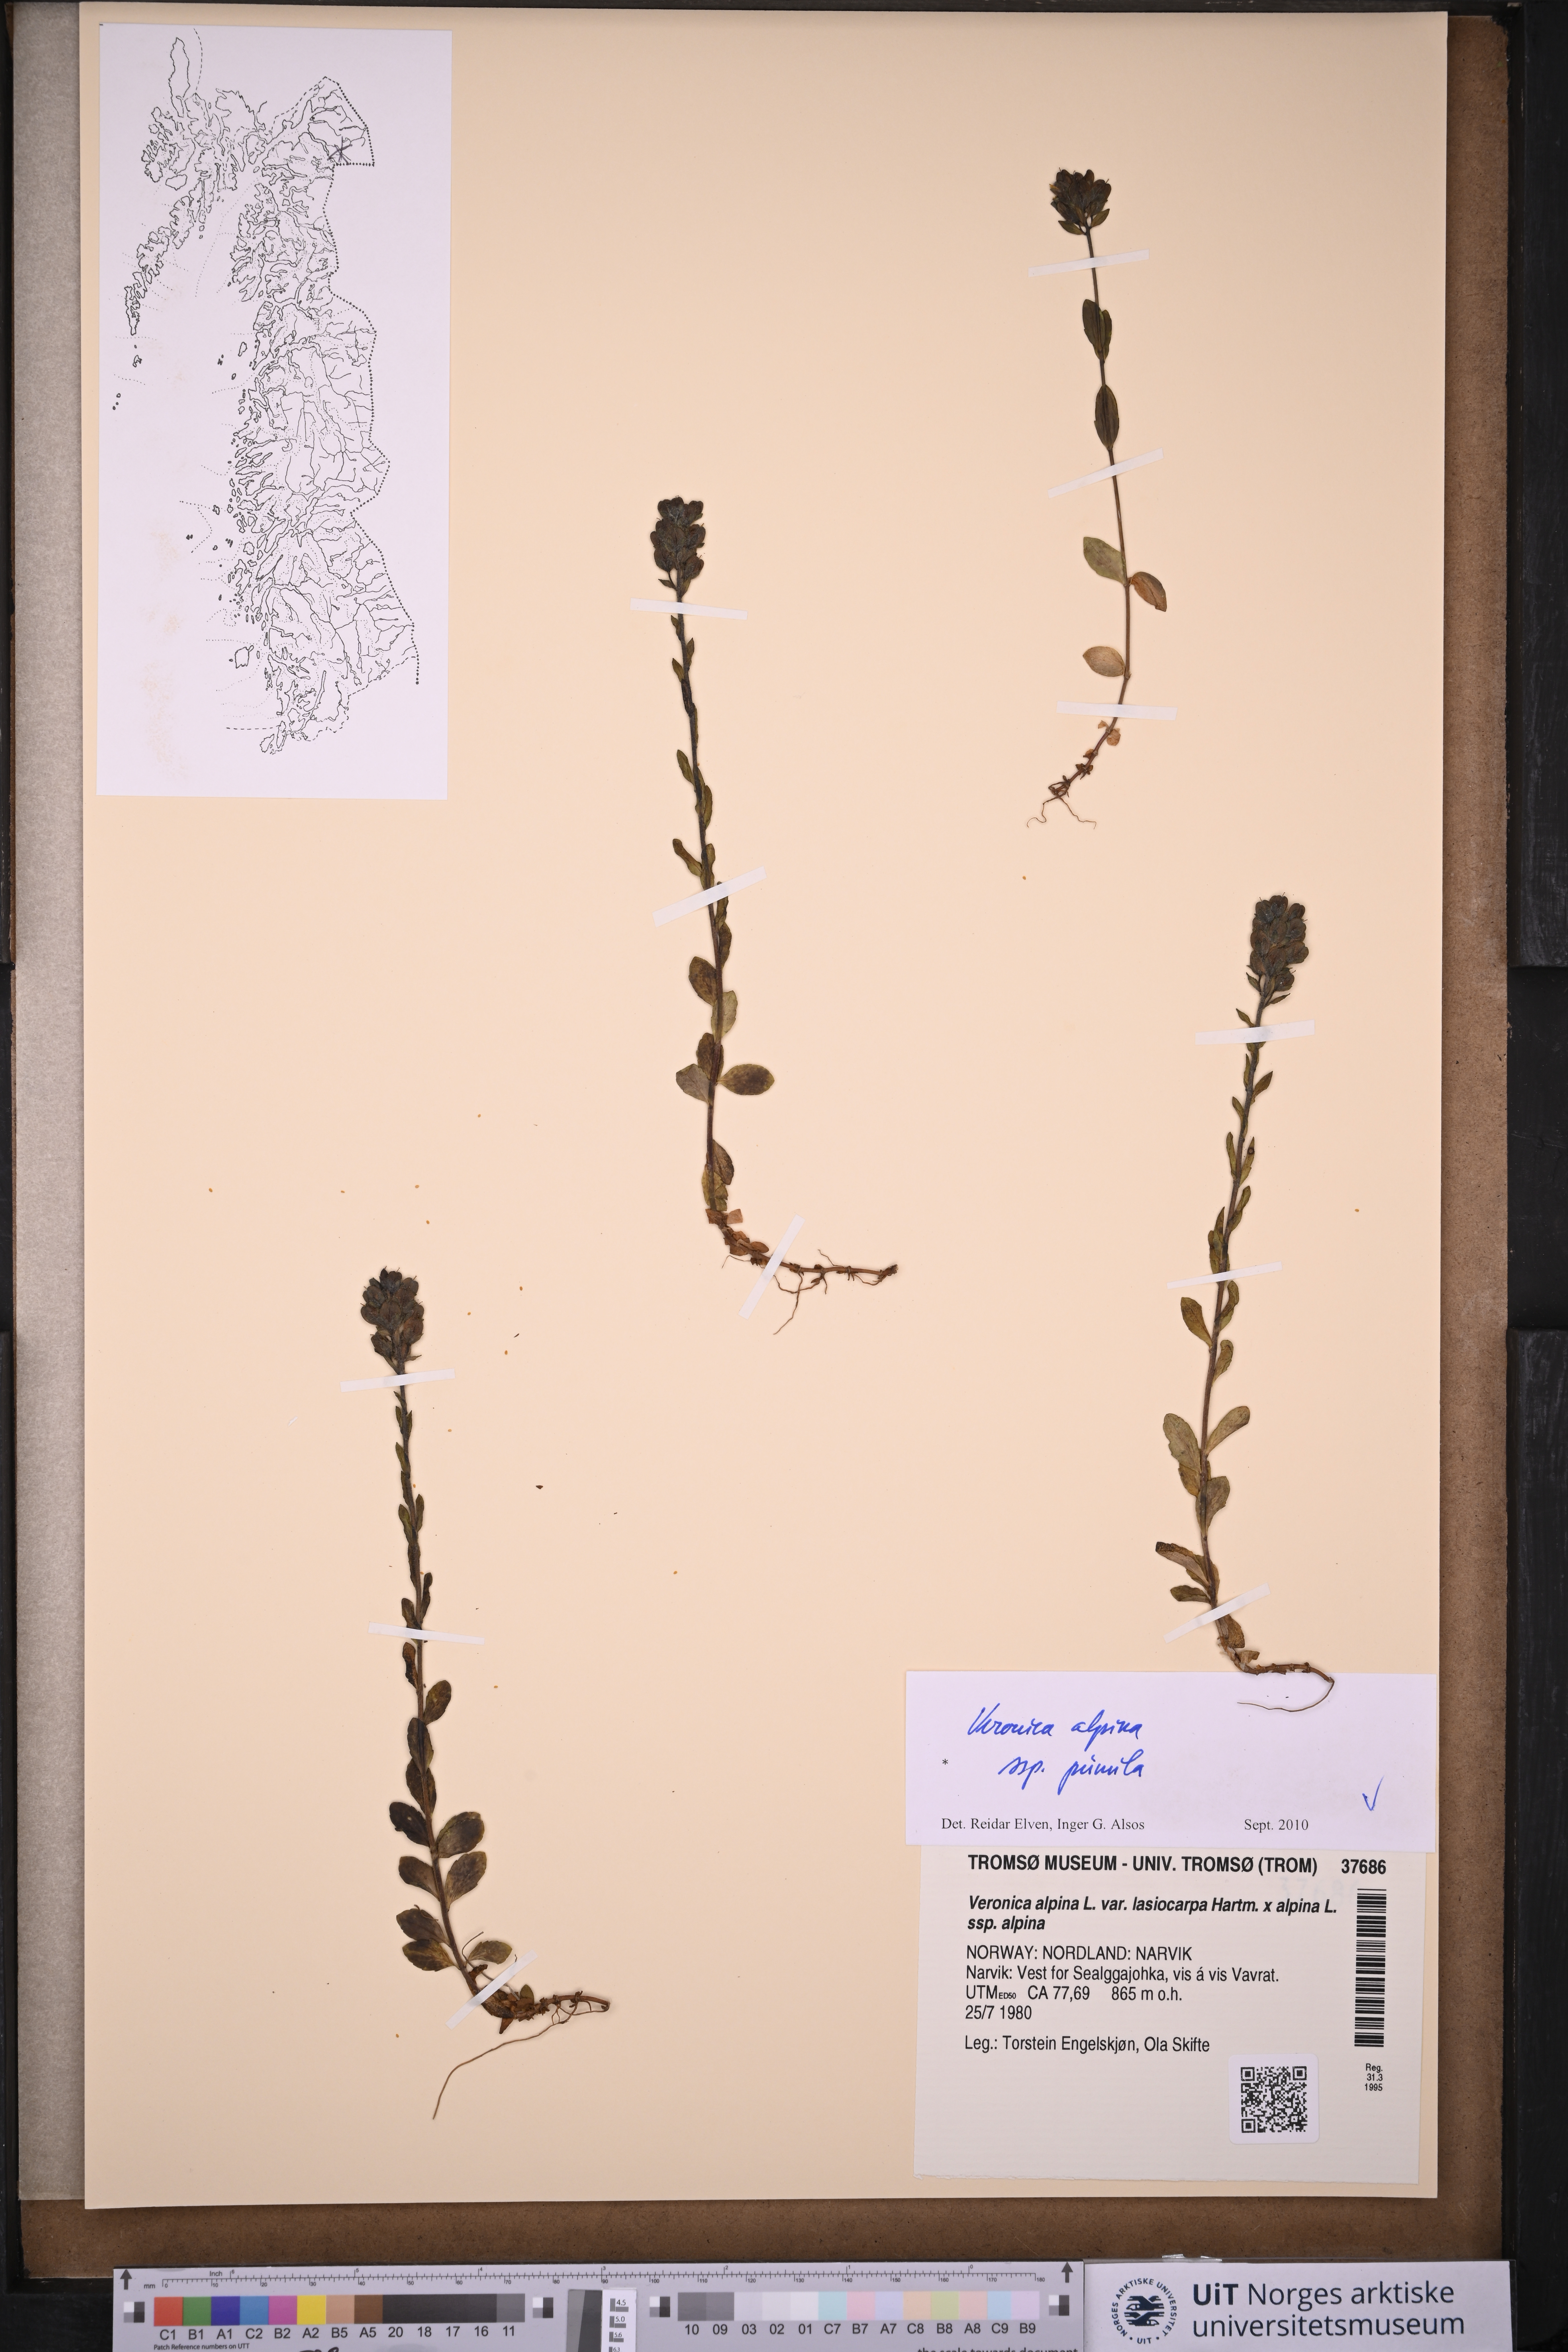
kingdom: Plantae
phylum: Tracheophyta
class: Magnoliopsida
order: Lamiales
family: Plantaginaceae
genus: Veronica
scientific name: Veronica alpina
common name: Alpine speedwell
